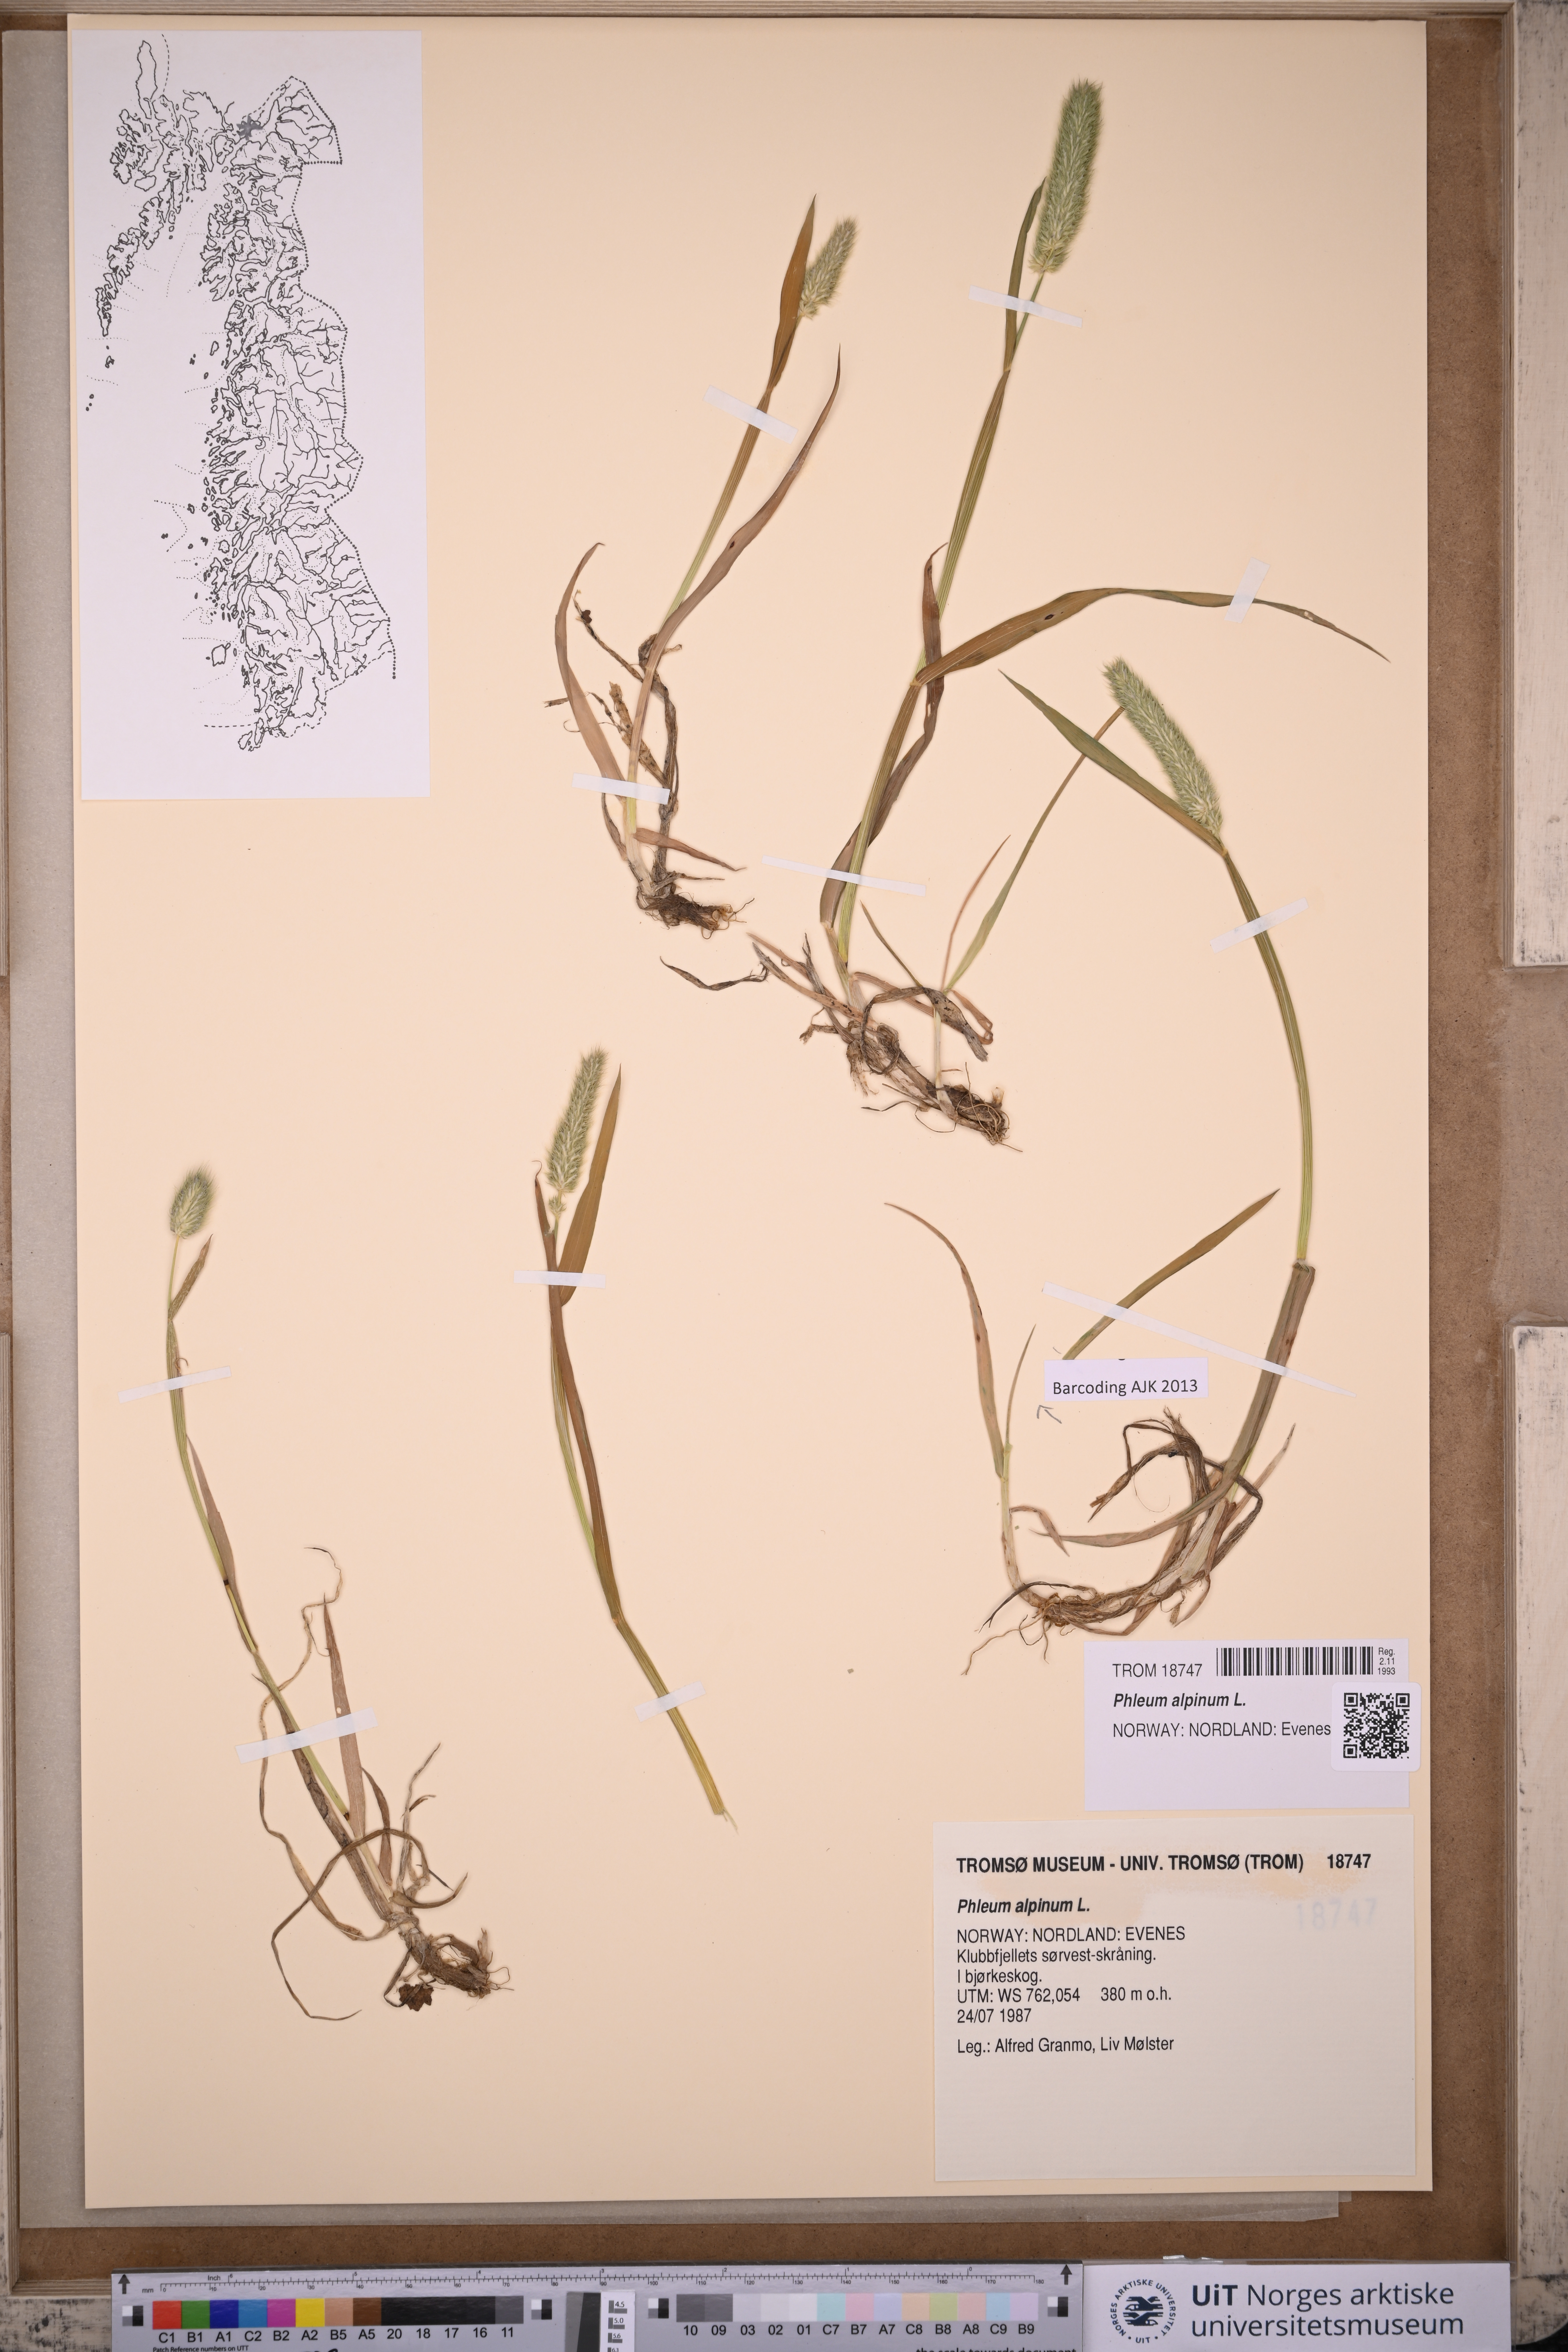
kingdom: Plantae
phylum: Tracheophyta
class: Liliopsida
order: Poales
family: Poaceae
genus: Phleum
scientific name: Phleum alpinum
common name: Alpine cat's-tail
